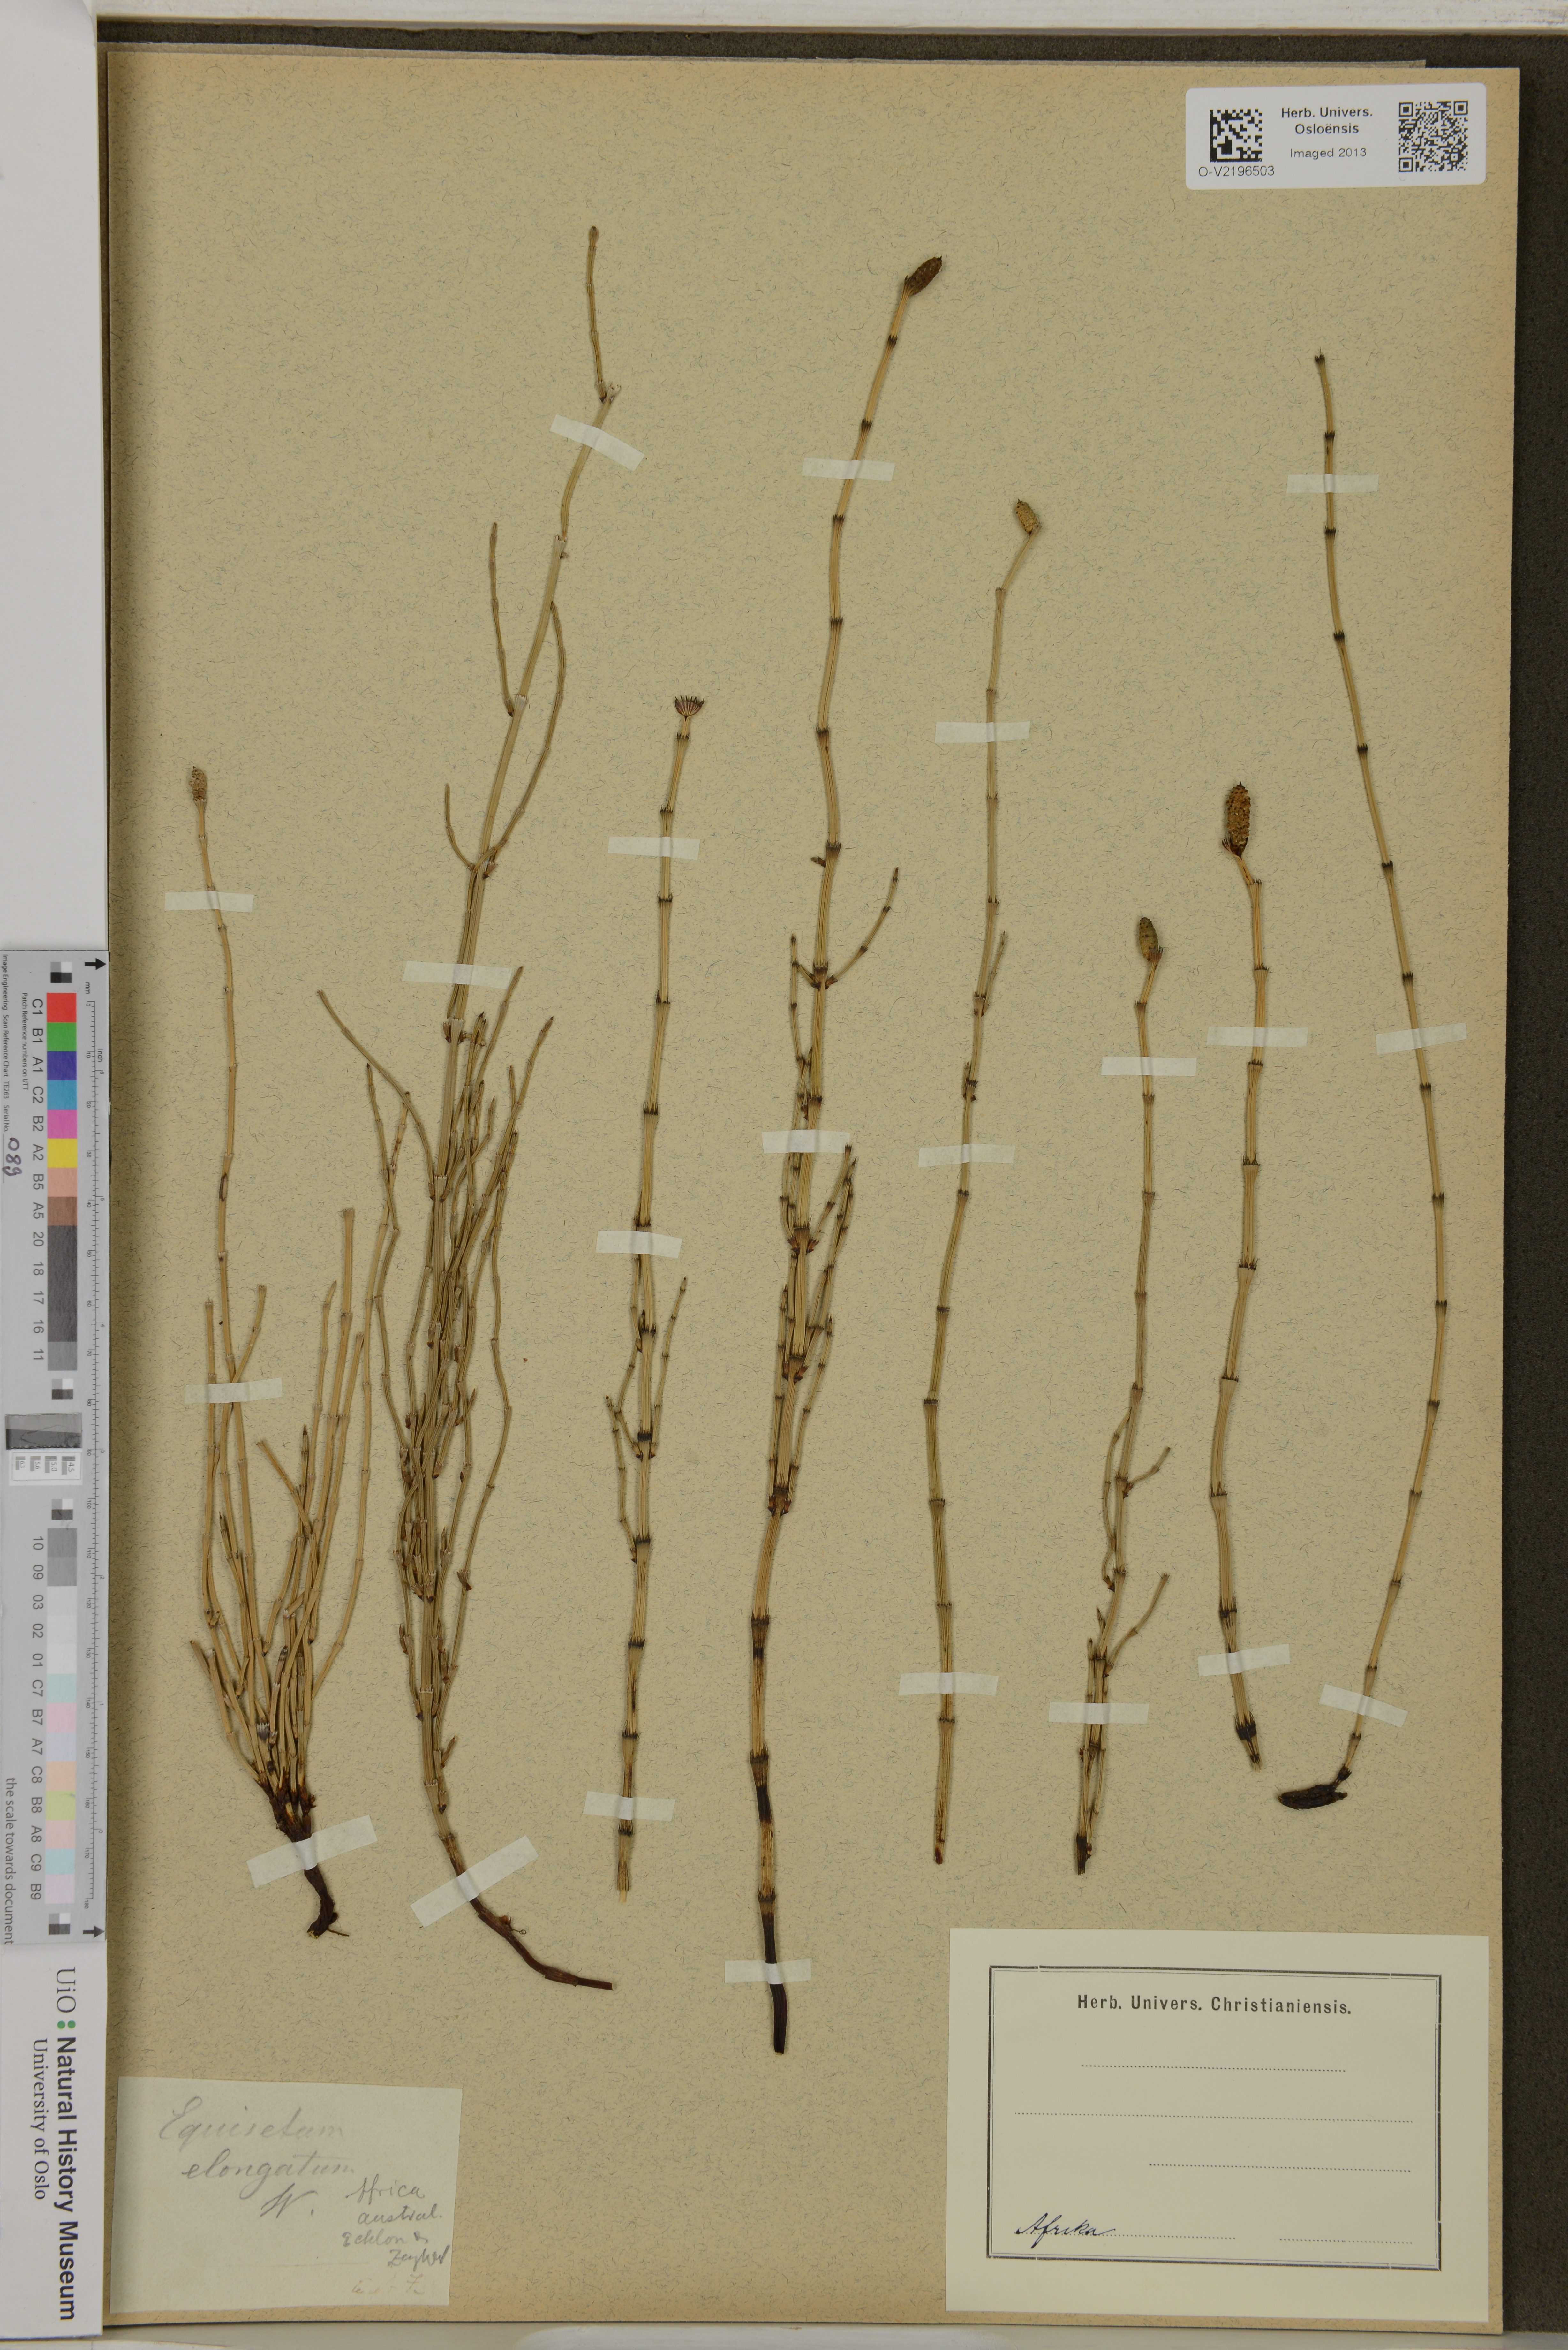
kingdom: Plantae
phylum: Tracheophyta
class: Polypodiopsida
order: Equisetales
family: Equisetaceae
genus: Equisetum
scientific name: Equisetum ramosissimum
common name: Branched horsetail
